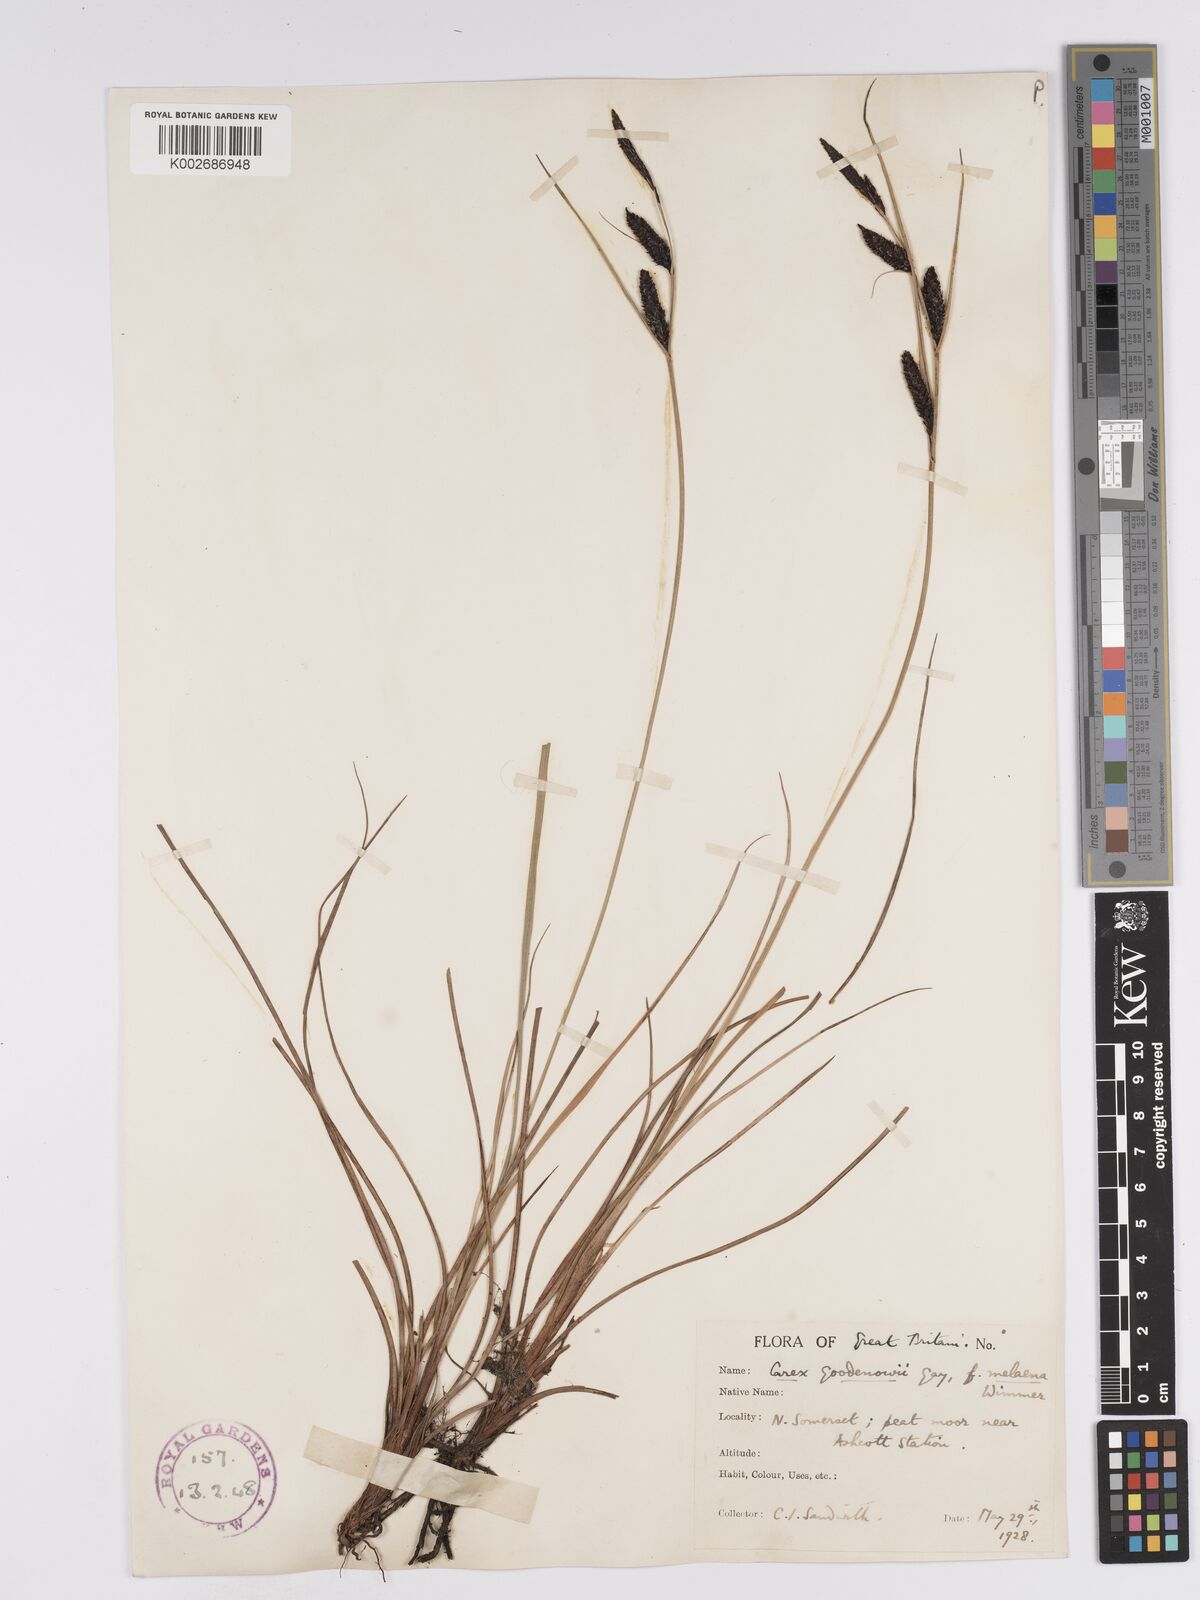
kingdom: Plantae
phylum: Tracheophyta
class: Liliopsida
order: Poales
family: Cyperaceae
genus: Carex
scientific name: Carex nigra
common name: Common sedge
